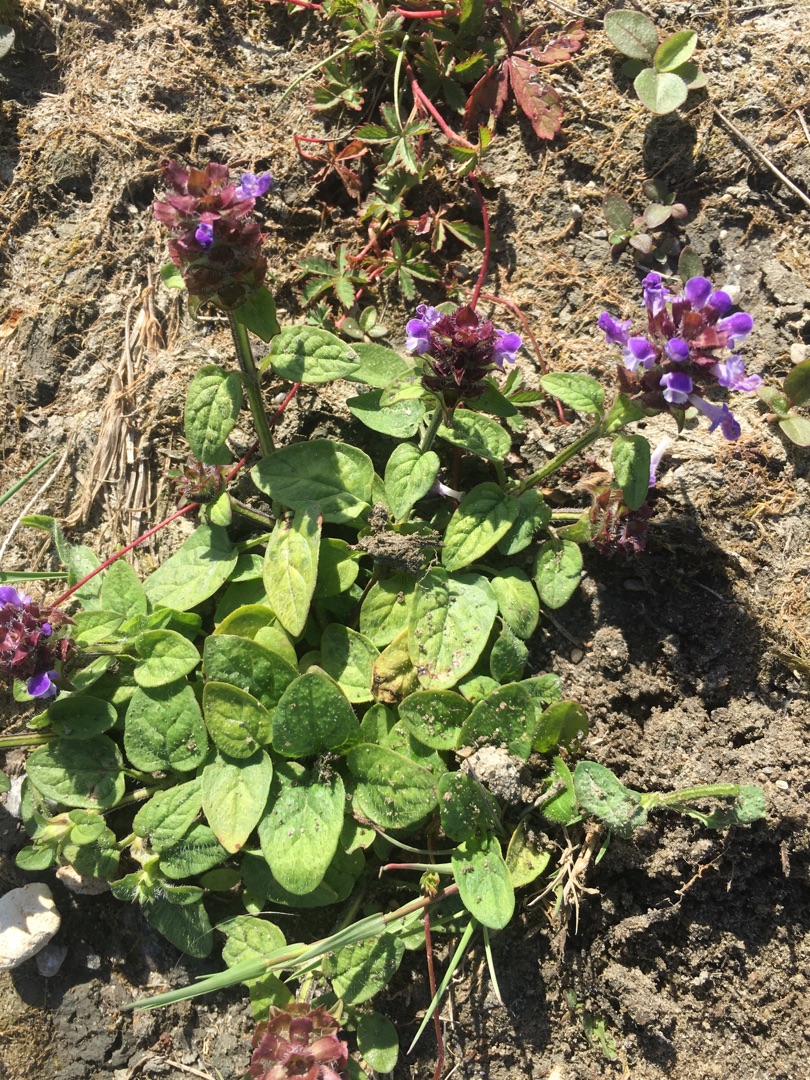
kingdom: Plantae
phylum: Tracheophyta
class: Magnoliopsida
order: Lamiales
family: Lamiaceae
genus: Prunella
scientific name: Prunella vulgaris
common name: Almindelig brunelle
